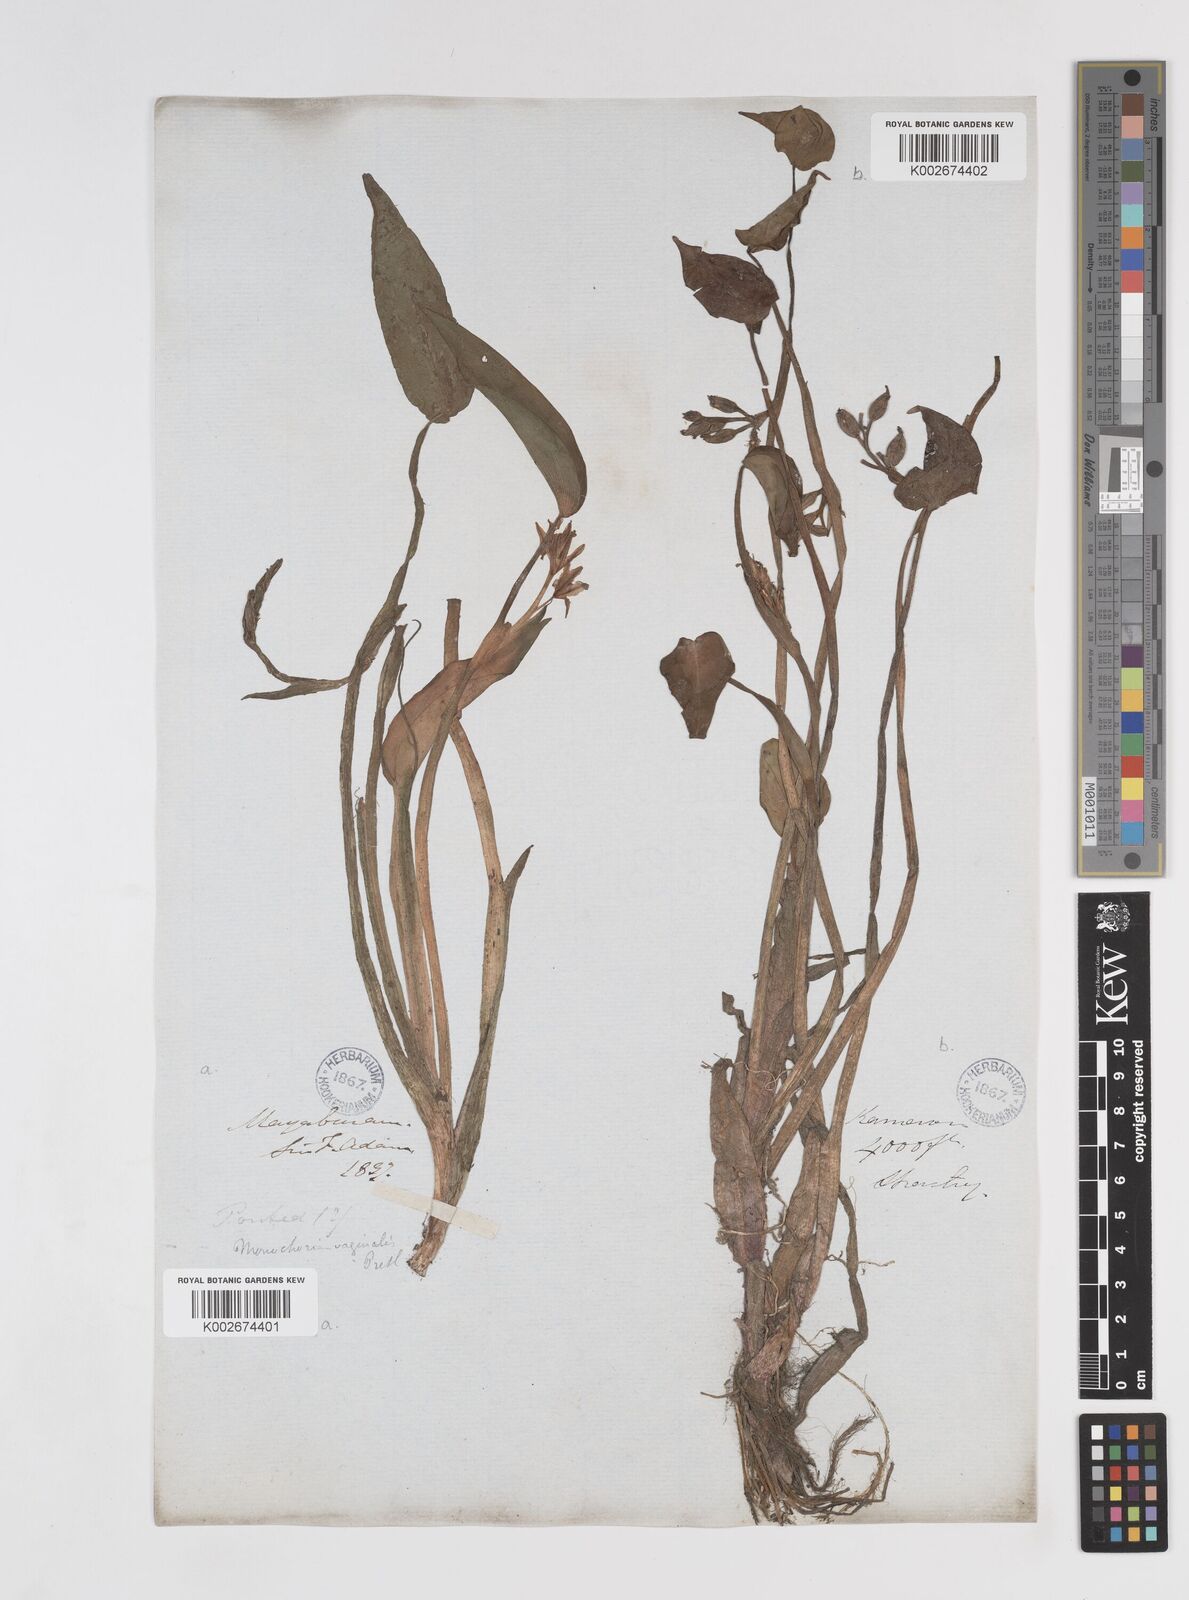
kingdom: Plantae
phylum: Tracheophyta
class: Liliopsida
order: Commelinales
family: Pontederiaceae
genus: Pontederia
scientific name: Pontederia vaginalis
